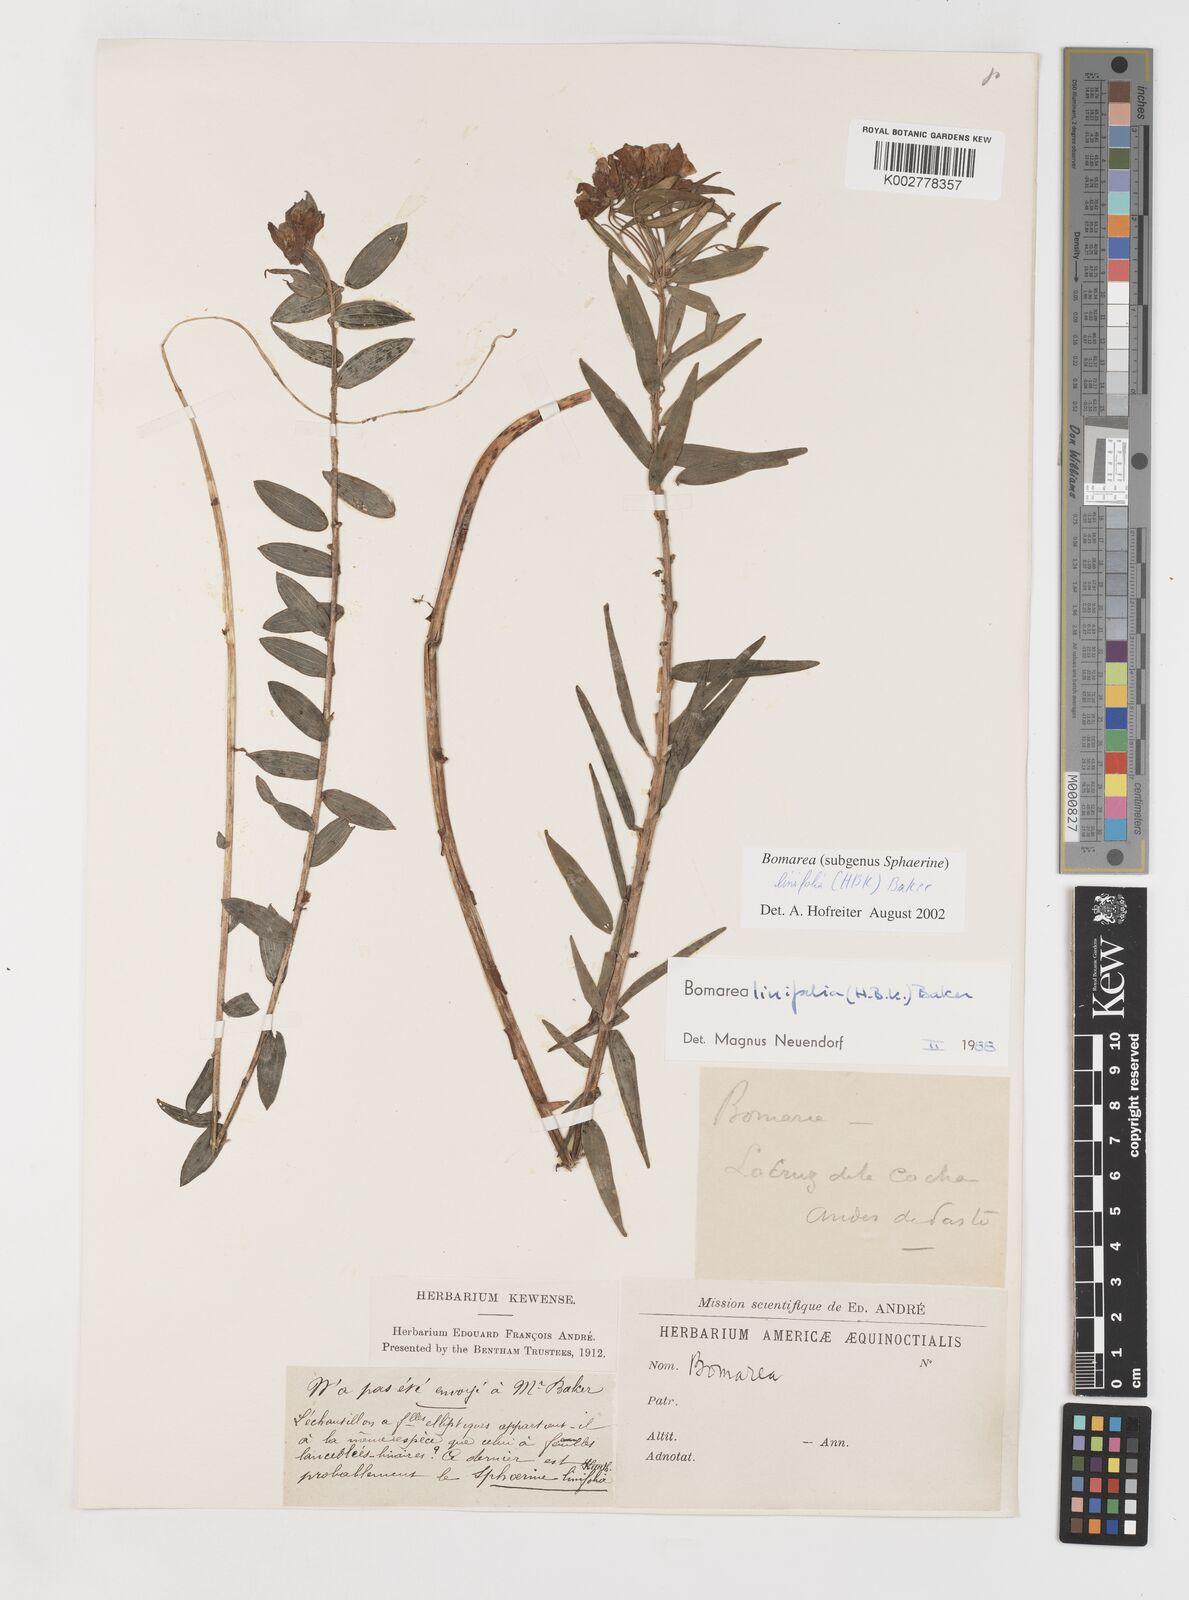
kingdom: Plantae
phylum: Tracheophyta
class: Liliopsida
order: Liliales
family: Alstroemeriaceae
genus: Bomarea
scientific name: Bomarea linifolia
